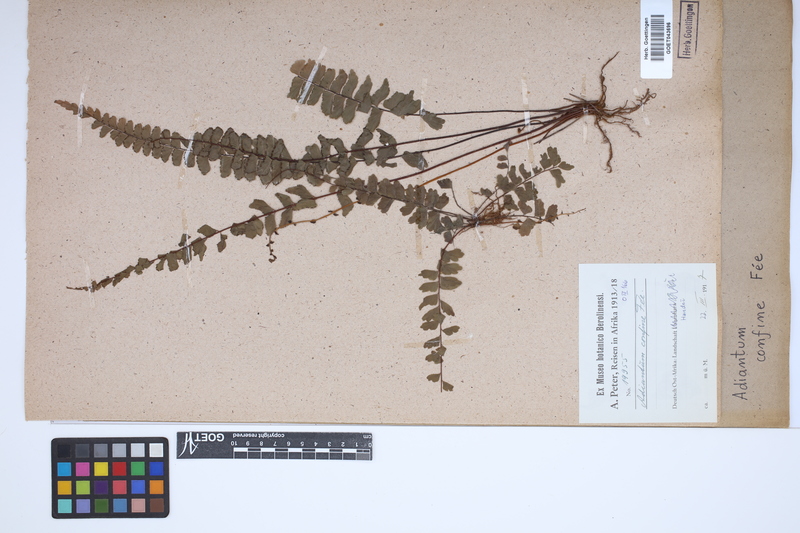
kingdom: Plantae
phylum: Tracheophyta
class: Polypodiopsida
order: Polypodiales
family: Pteridaceae
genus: Adiantum
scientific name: Adiantum confine
